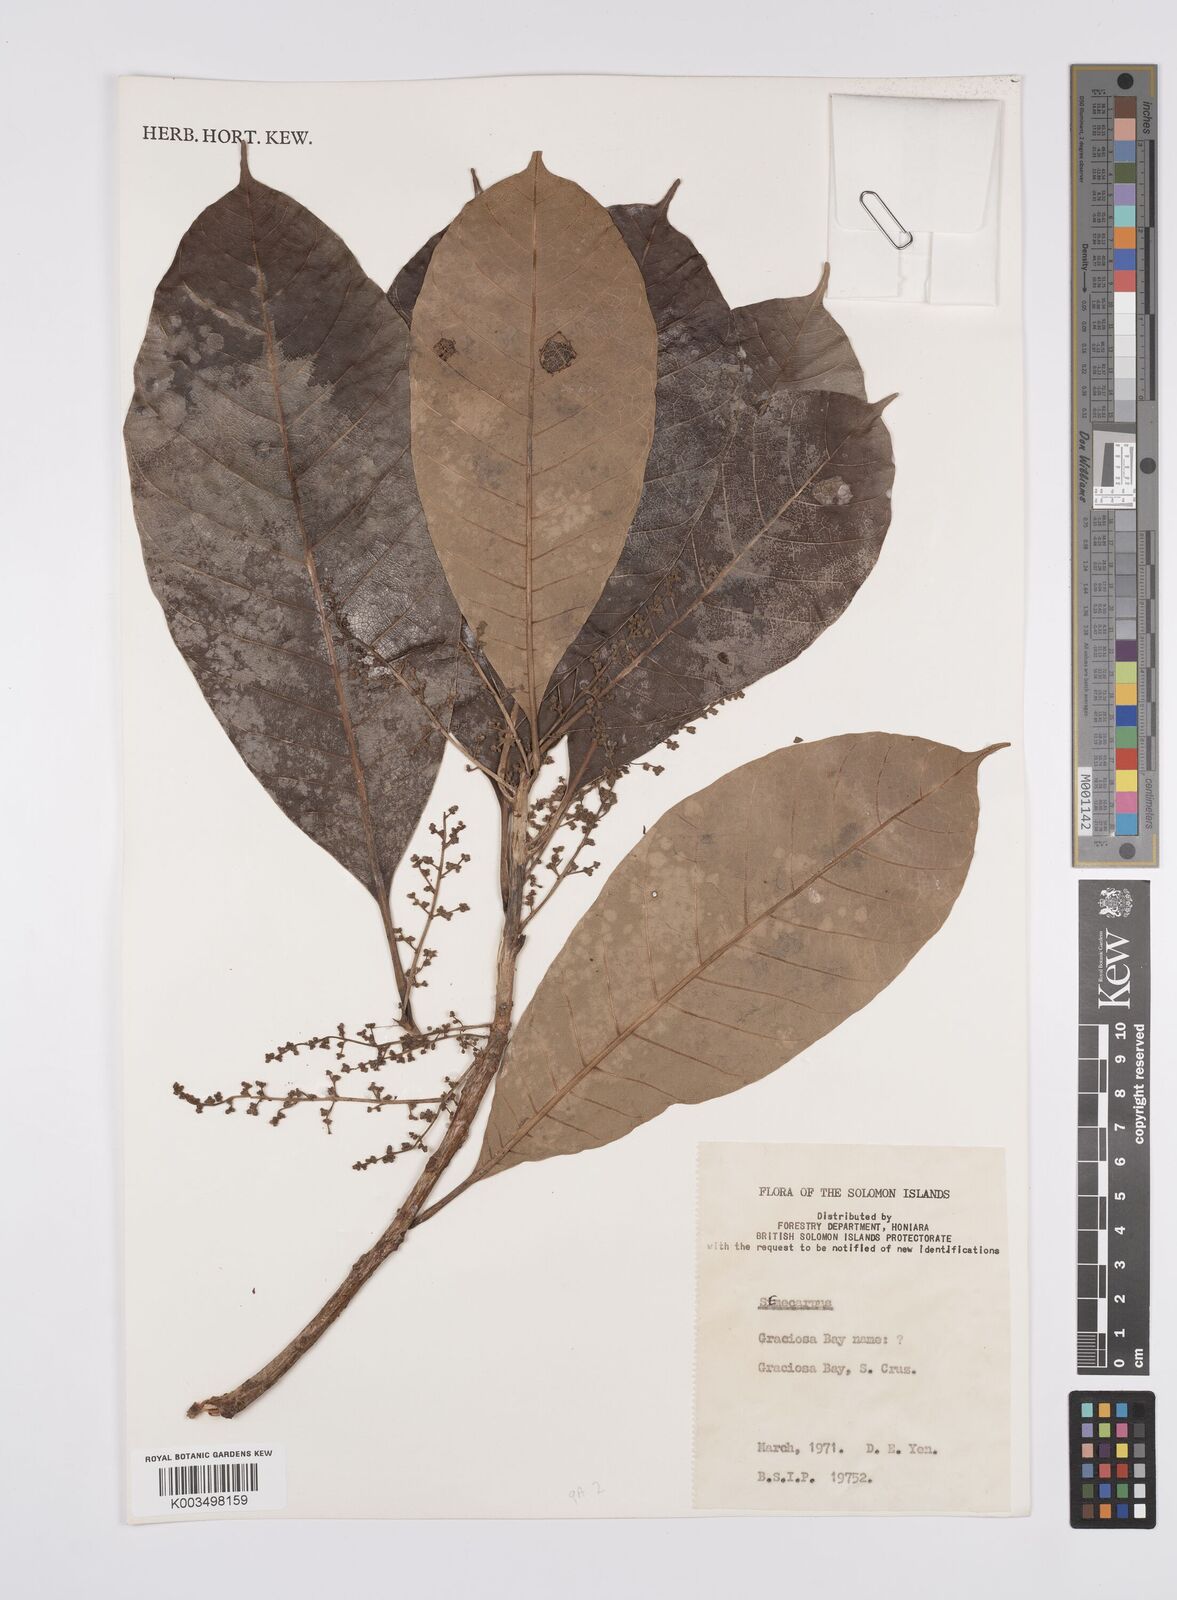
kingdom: Plantae
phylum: Tracheophyta
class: Magnoliopsida
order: Sapindales
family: Anacardiaceae
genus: Semecarpus
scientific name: Semecarpus
